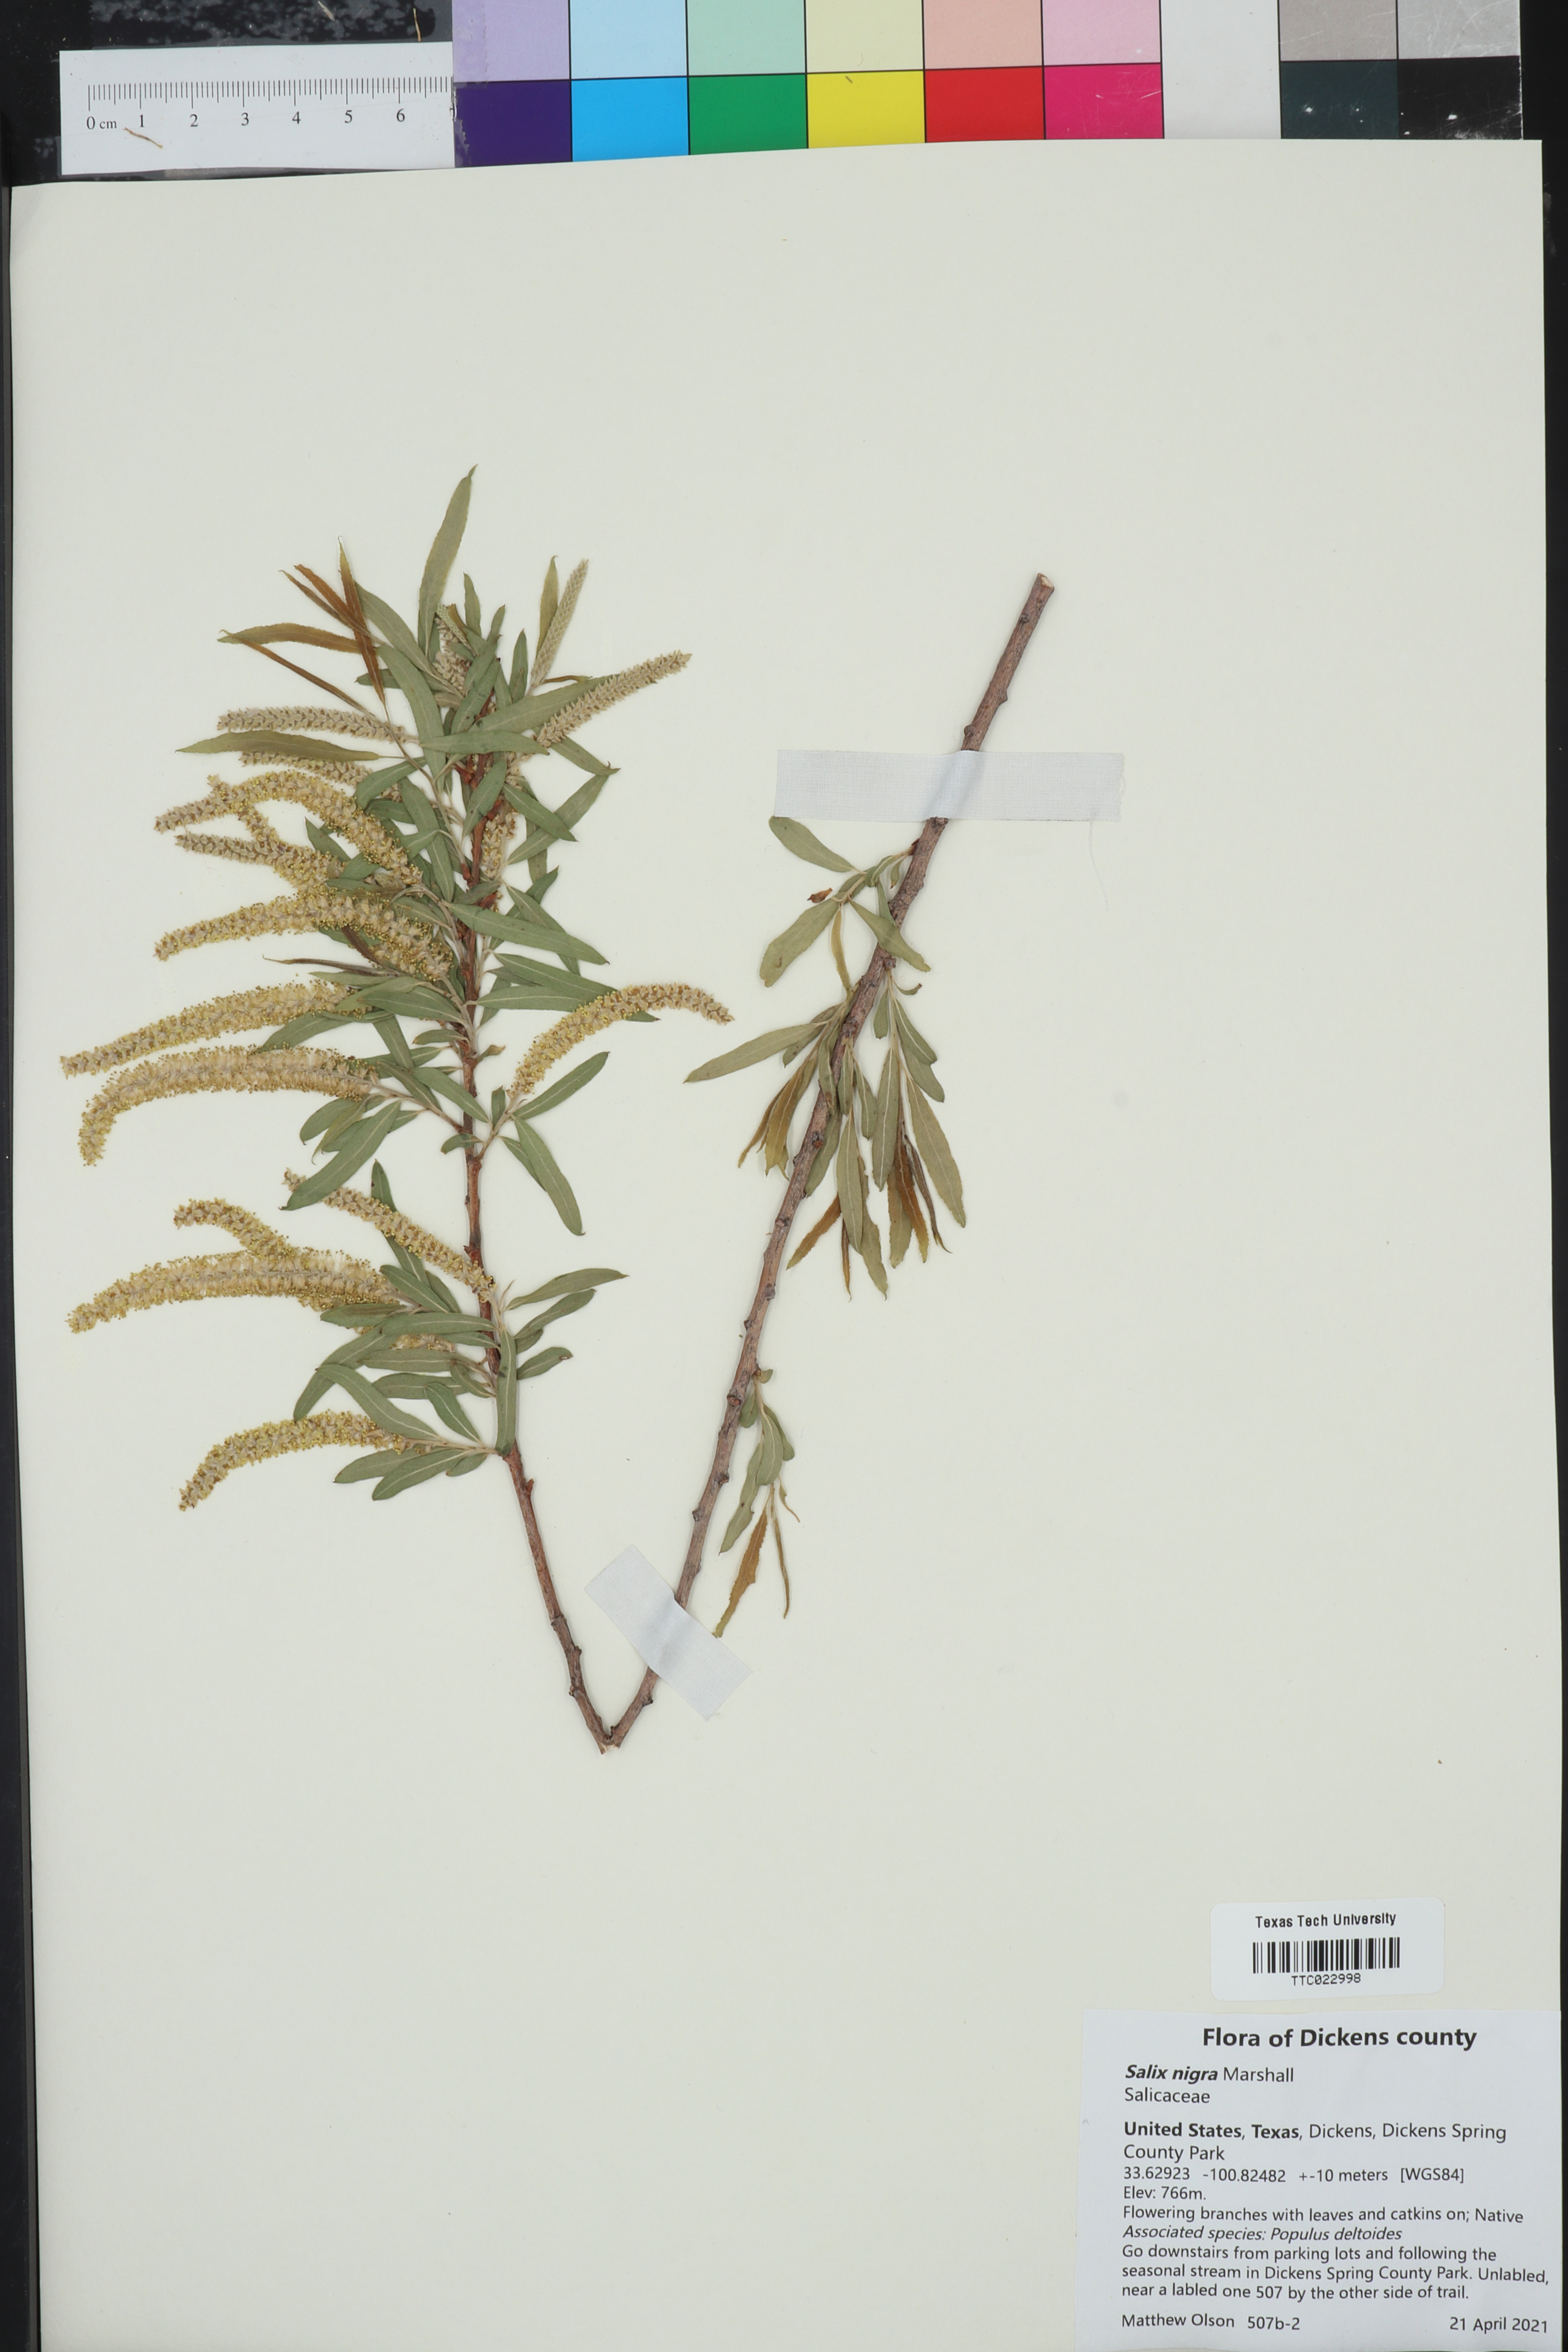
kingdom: Plantae
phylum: Tracheophyta
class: Magnoliopsida
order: Malpighiales
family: Salicaceae
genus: Salix
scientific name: Salix nigra
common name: Black willow
